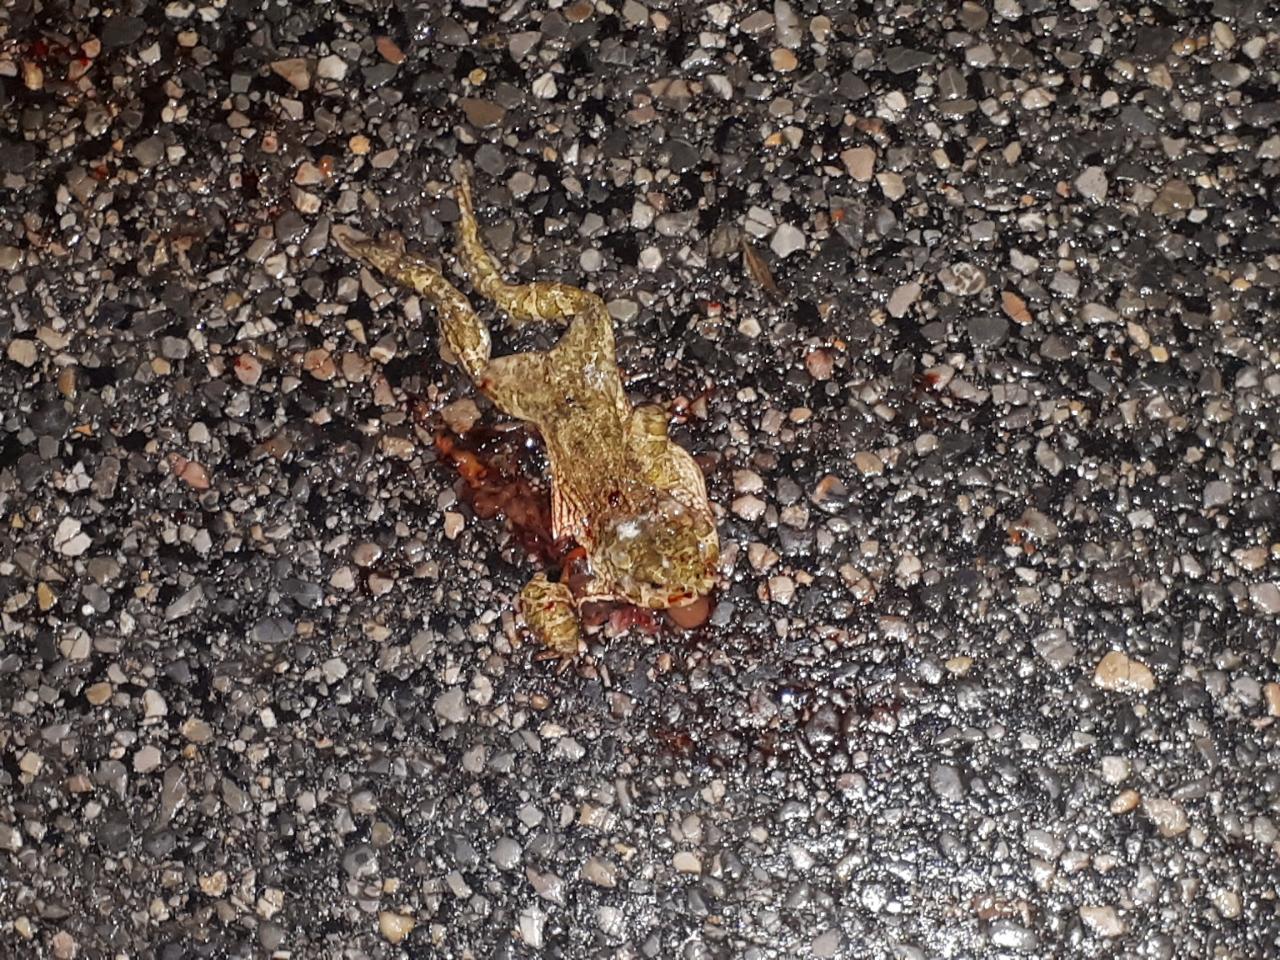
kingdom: Animalia
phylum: Chordata
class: Amphibia
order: Anura
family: Bufonidae
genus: Bufotes
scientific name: Bufotes viridis
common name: European green toad
